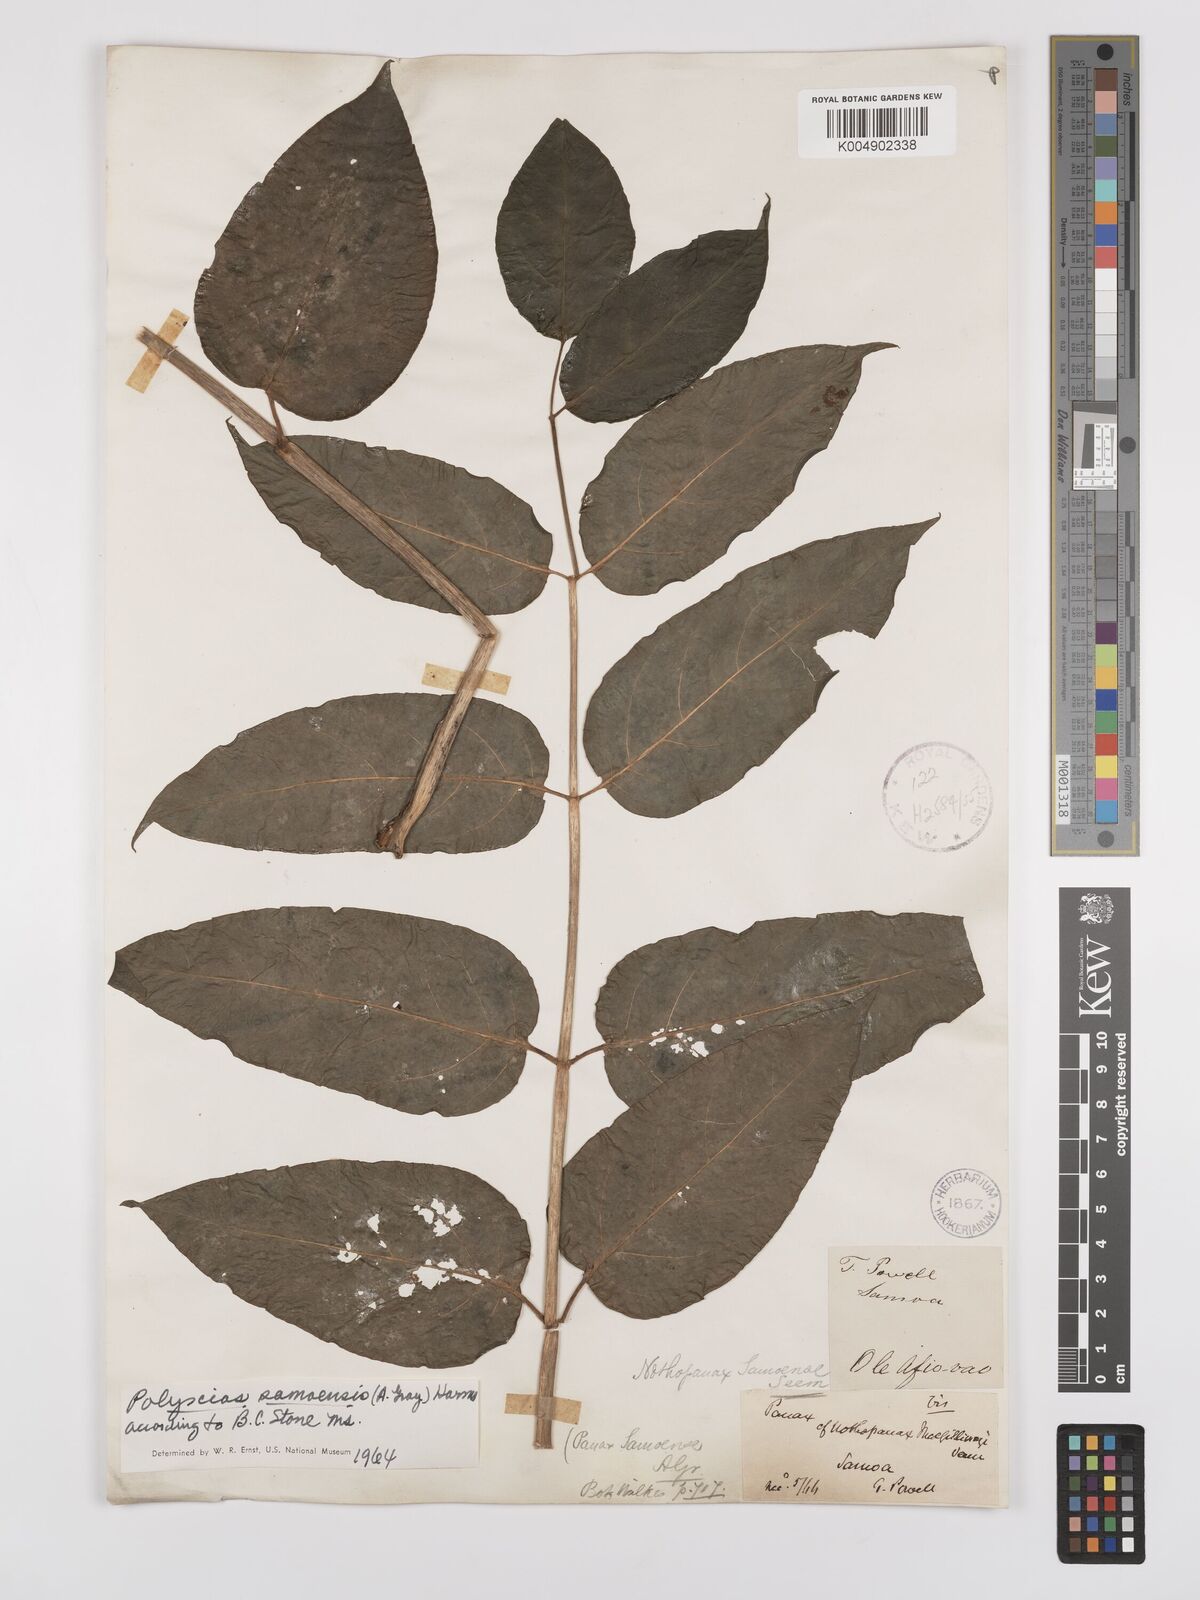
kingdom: Plantae
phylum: Tracheophyta
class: Magnoliopsida
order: Apiales
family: Araliaceae
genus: Polyscias
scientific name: Polyscias samoensis
